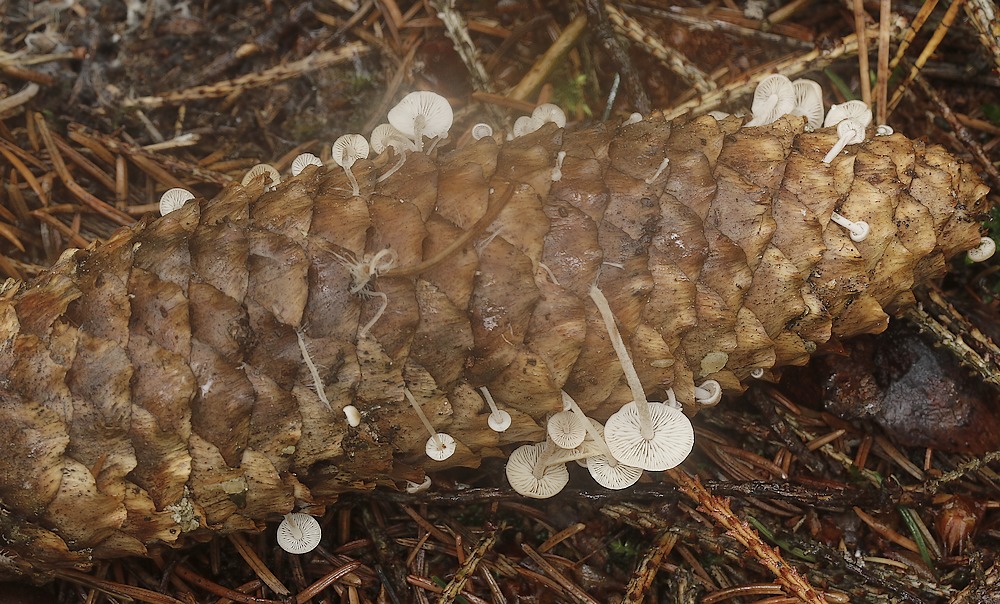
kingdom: Fungi
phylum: Basidiomycota
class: Agaricomycetes
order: Agaricales
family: Marasmiaceae
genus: Baeospora
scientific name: Baeospora myosura
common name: koglebruskhat
